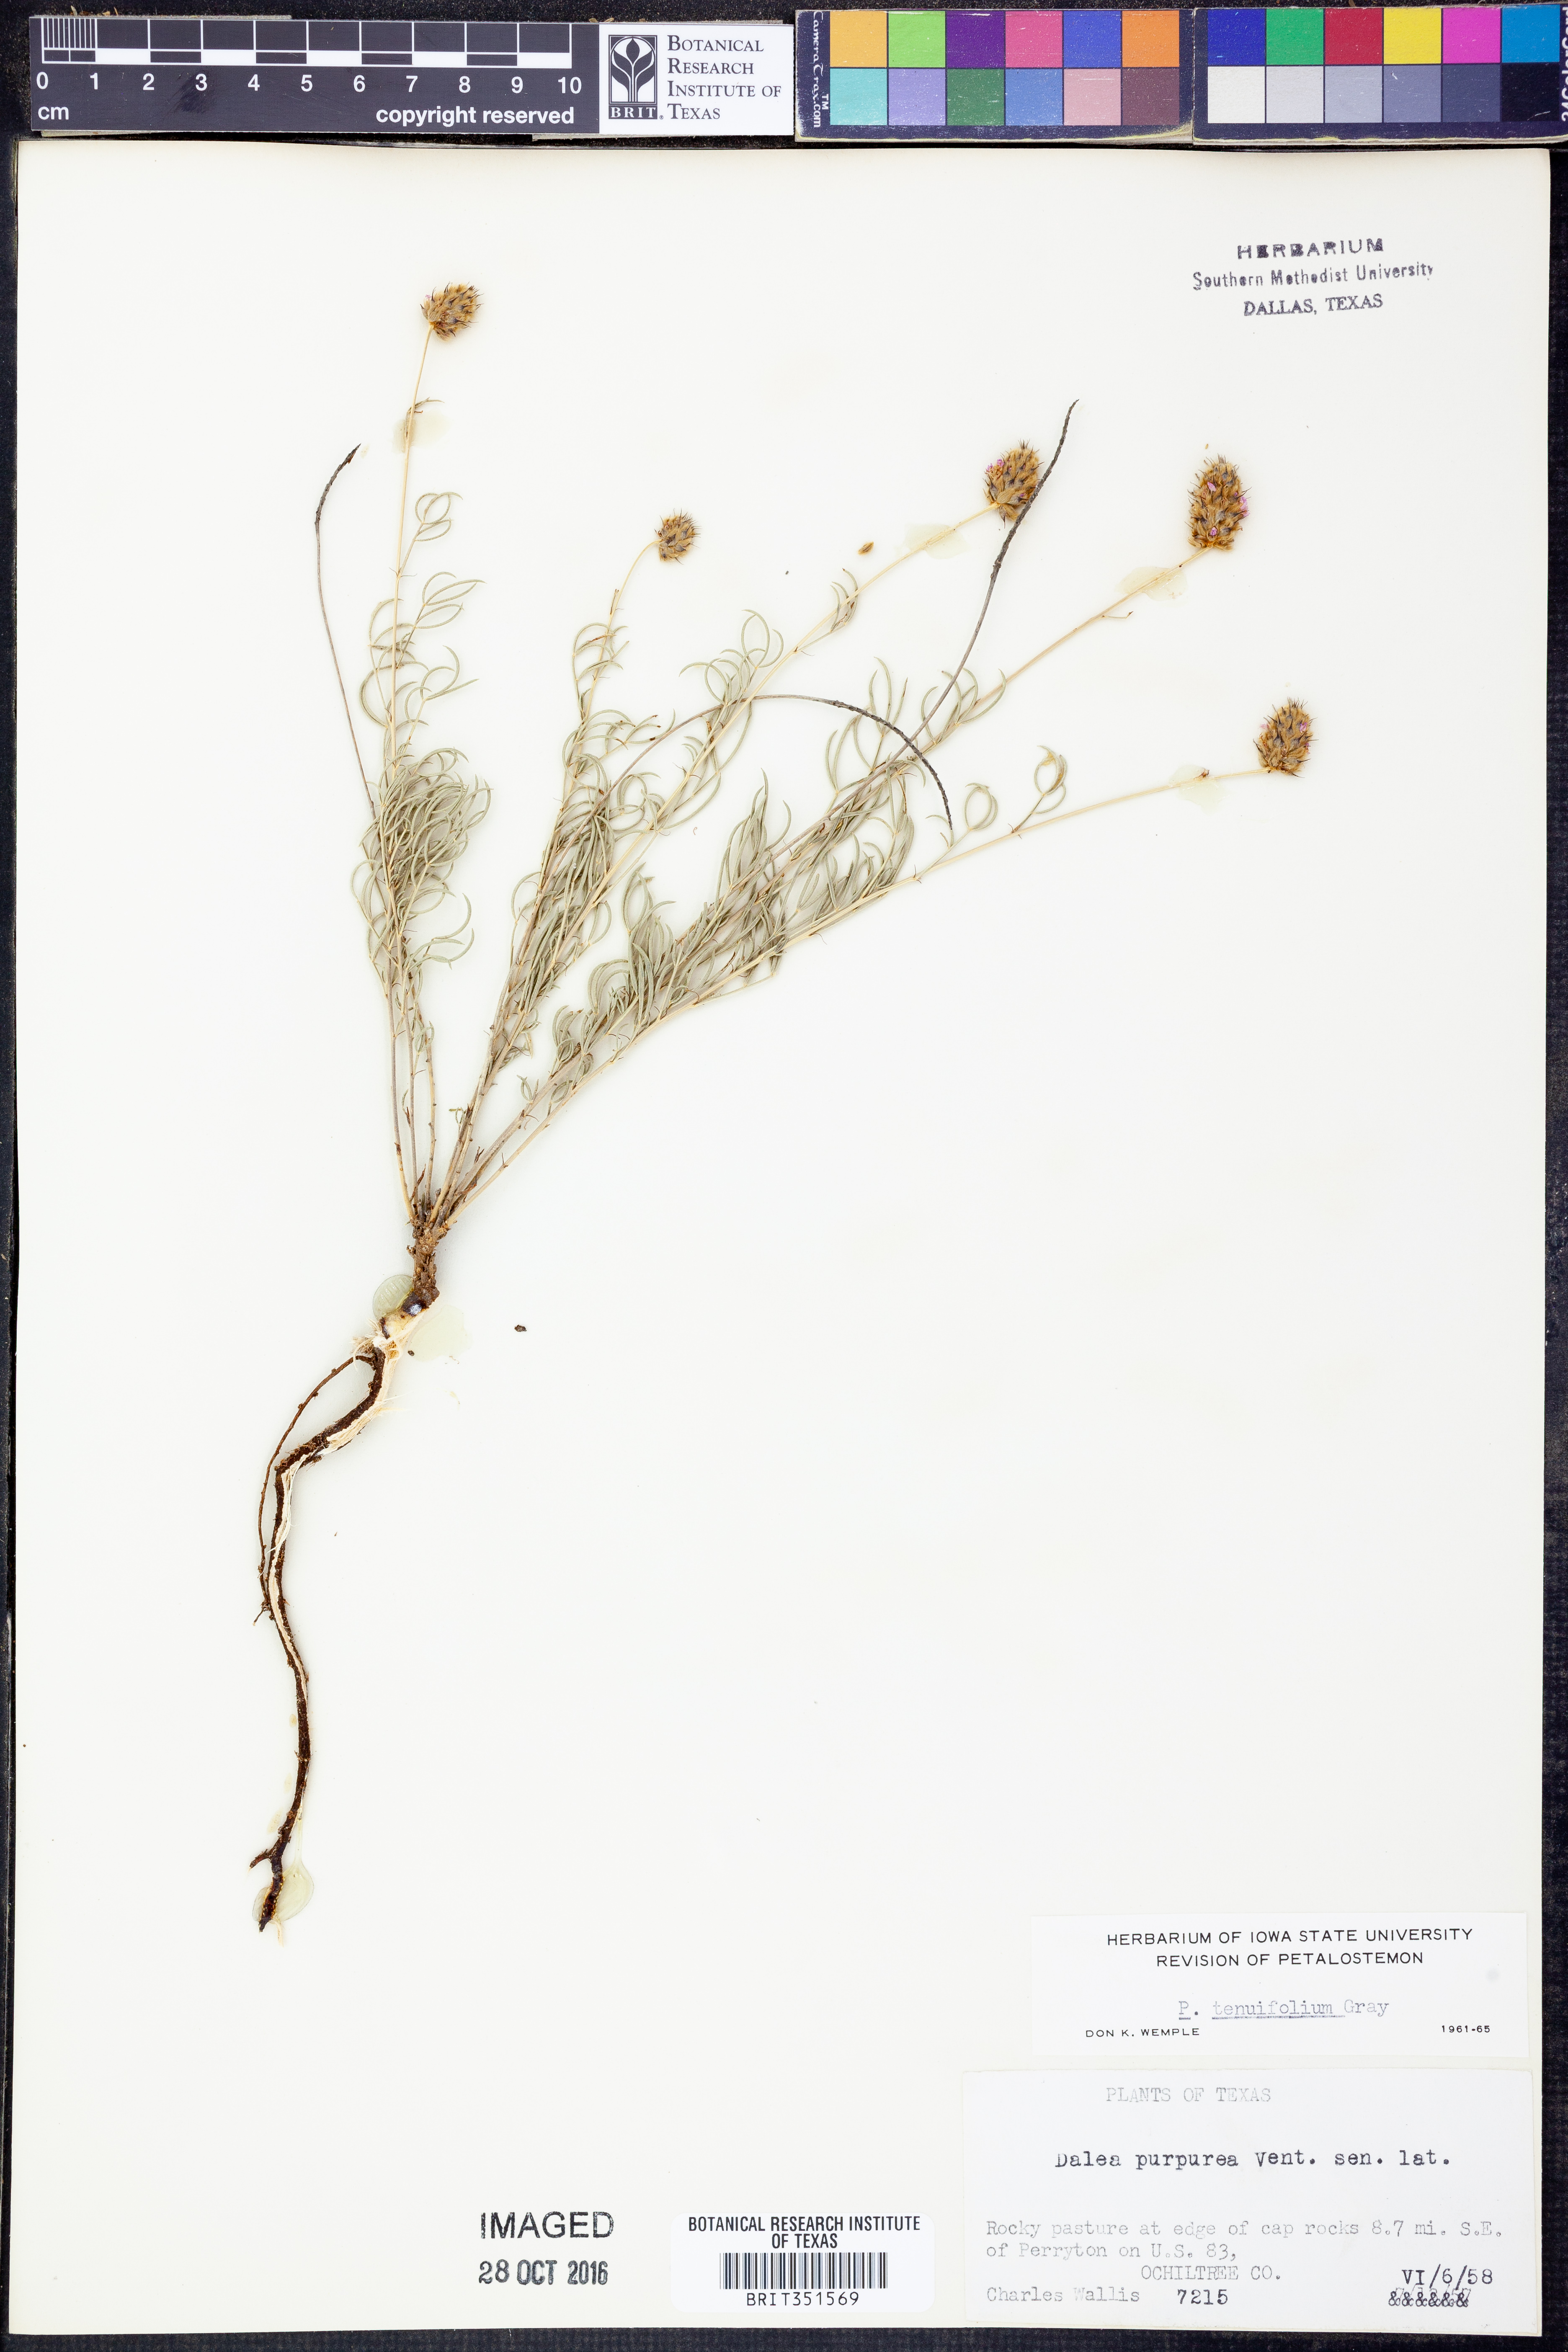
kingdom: Plantae
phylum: Tracheophyta
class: Magnoliopsida
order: Fabales
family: Fabaceae
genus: Dalea
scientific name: Dalea tenuifolia
